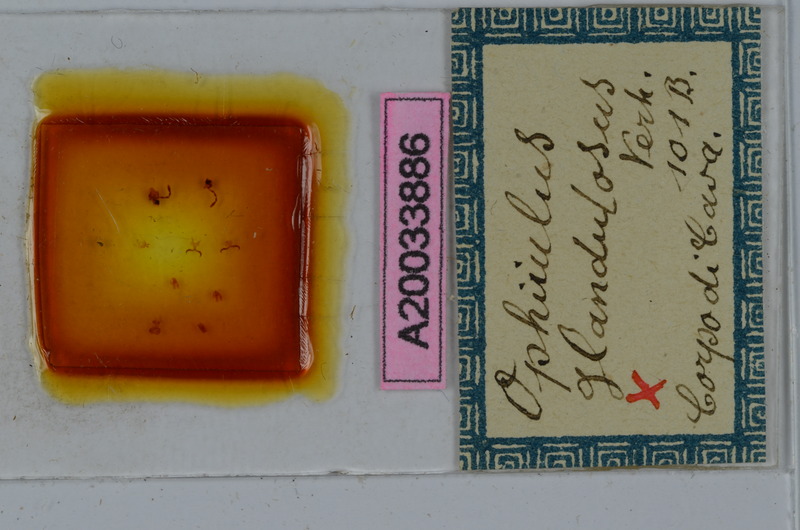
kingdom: Animalia
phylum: Arthropoda
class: Diplopoda
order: Julida
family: Julidae
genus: Ophyiulus
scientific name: Ophyiulus napolitanus
